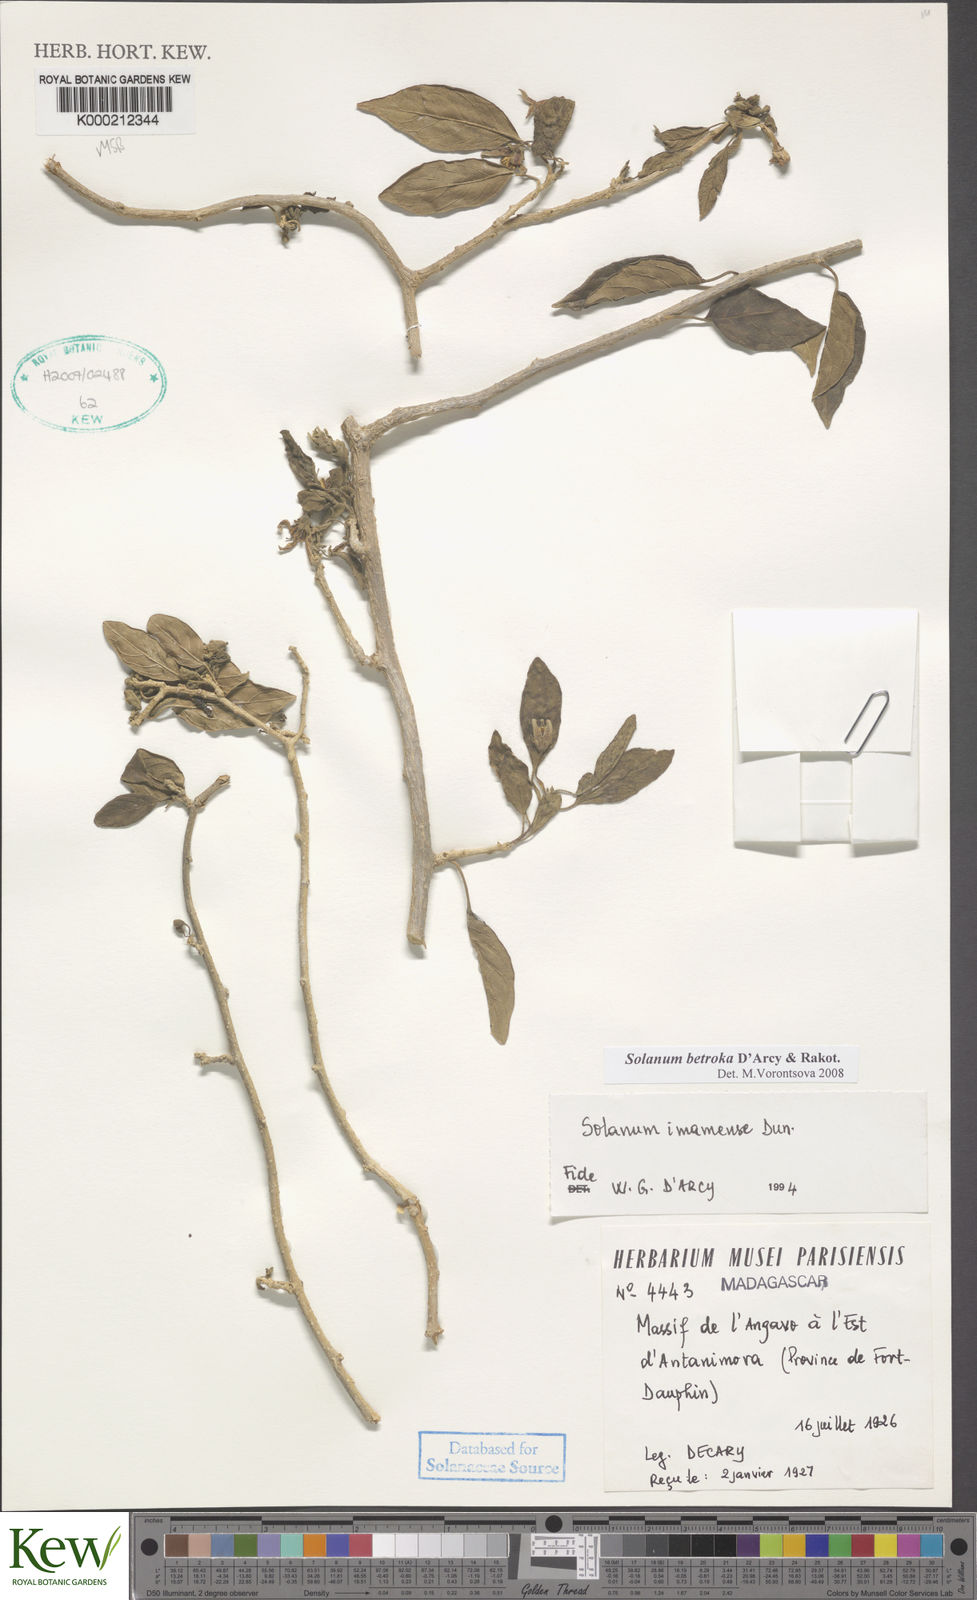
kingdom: Plantae
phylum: Tracheophyta
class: Magnoliopsida
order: Solanales
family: Solanaceae
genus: Solanum
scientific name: Solanum imamense
